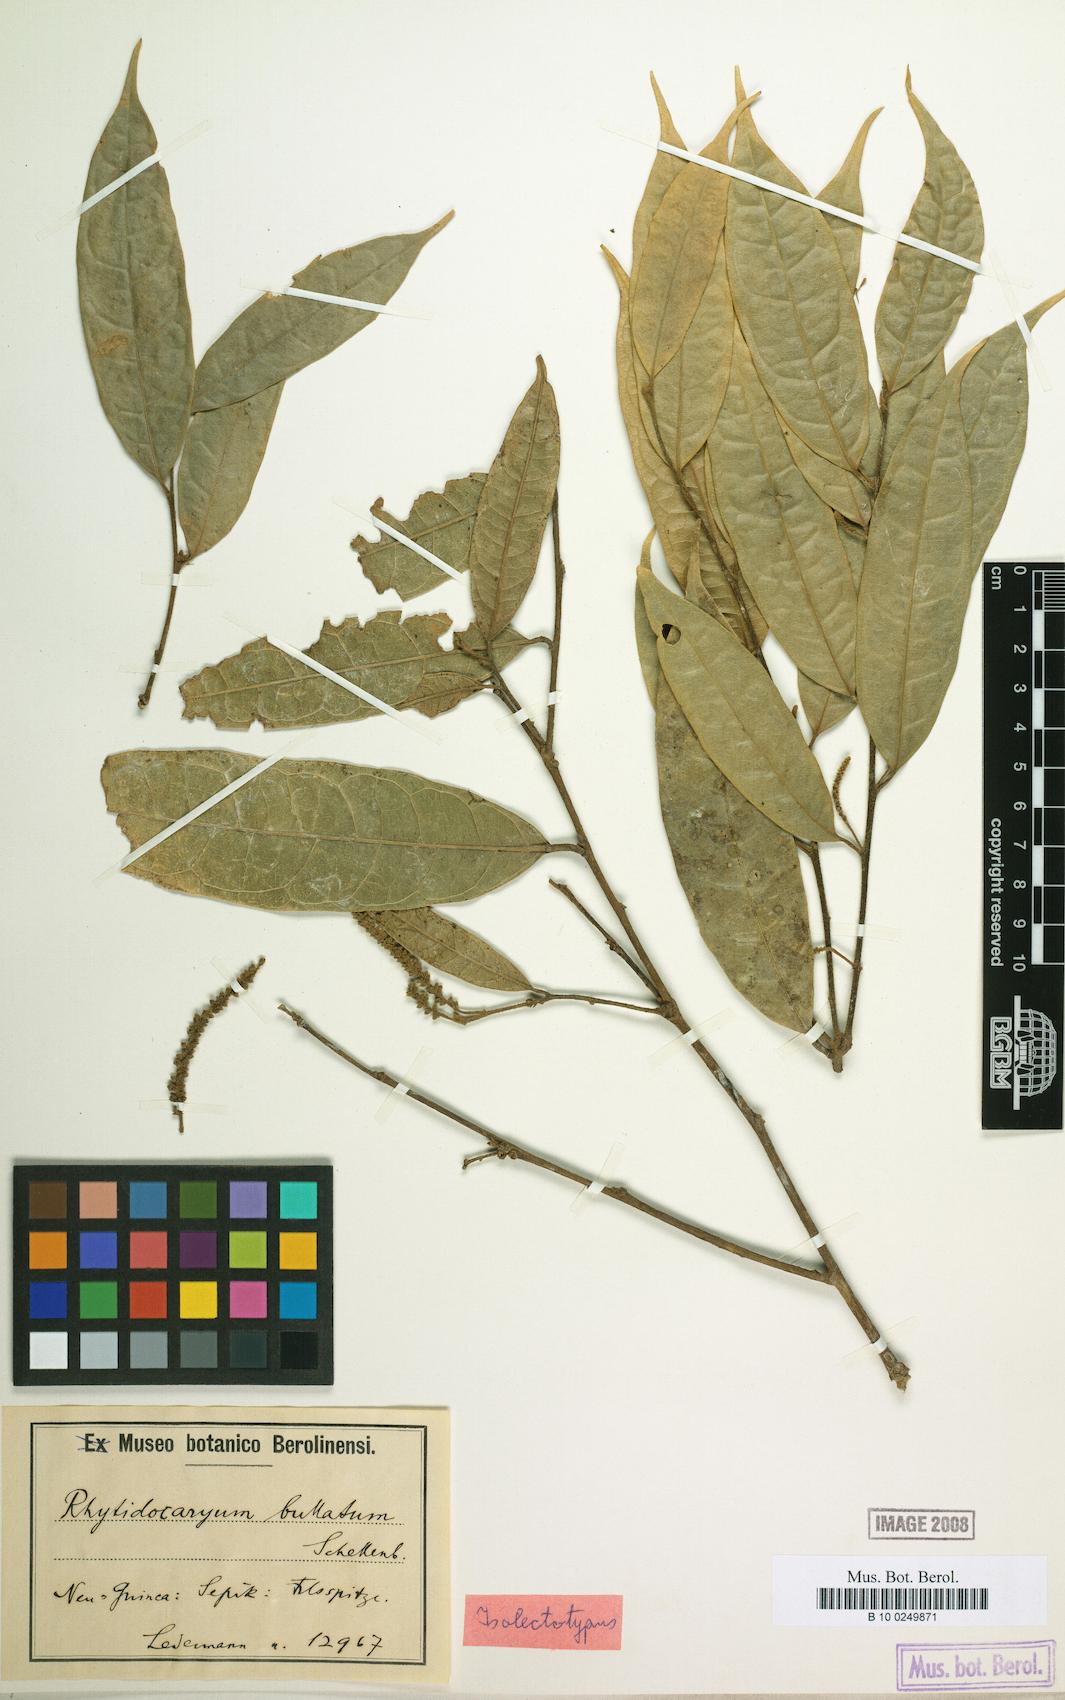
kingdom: Plantae
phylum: Tracheophyta
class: Magnoliopsida
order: Icacinales
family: Icacinaceae
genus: Ryticaryum
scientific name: Ryticaryum Rhyticaryum longifolium
